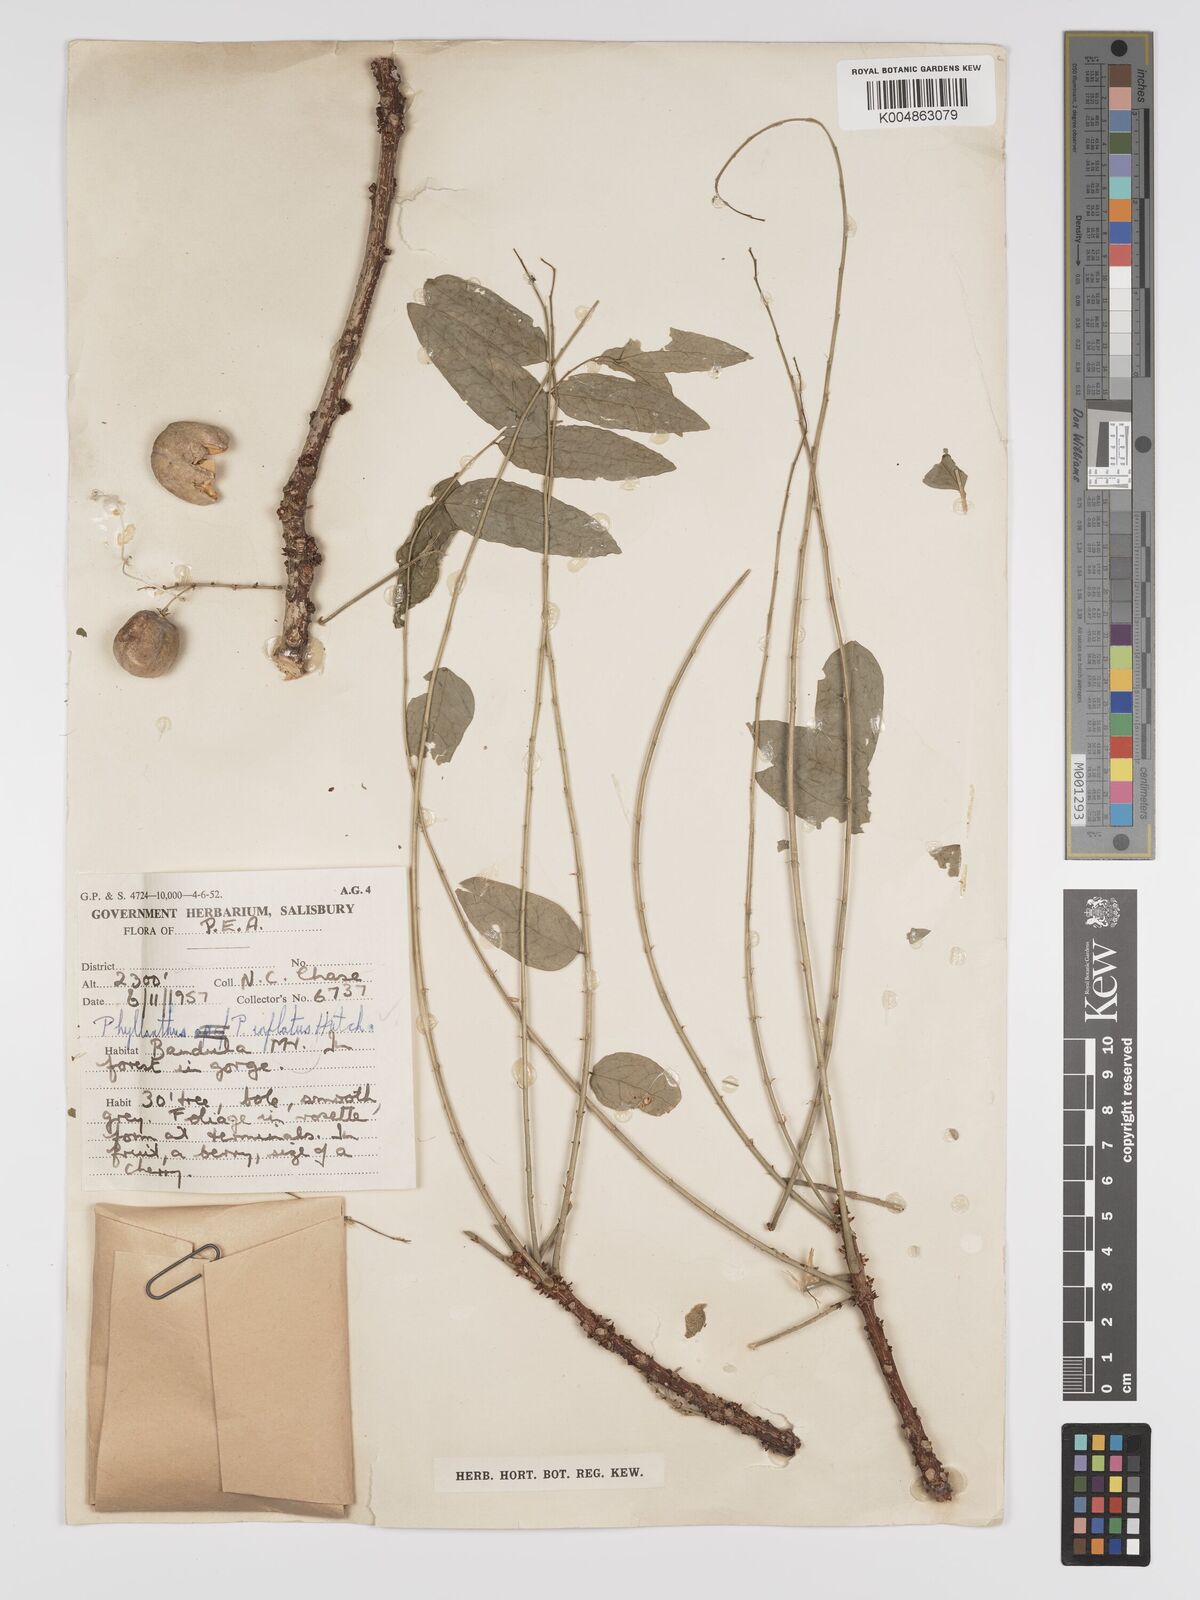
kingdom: Plantae
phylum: Tracheophyta
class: Magnoliopsida
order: Malpighiales
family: Phyllanthaceae
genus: Phyllanthus
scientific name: Phyllanthus inflatus
